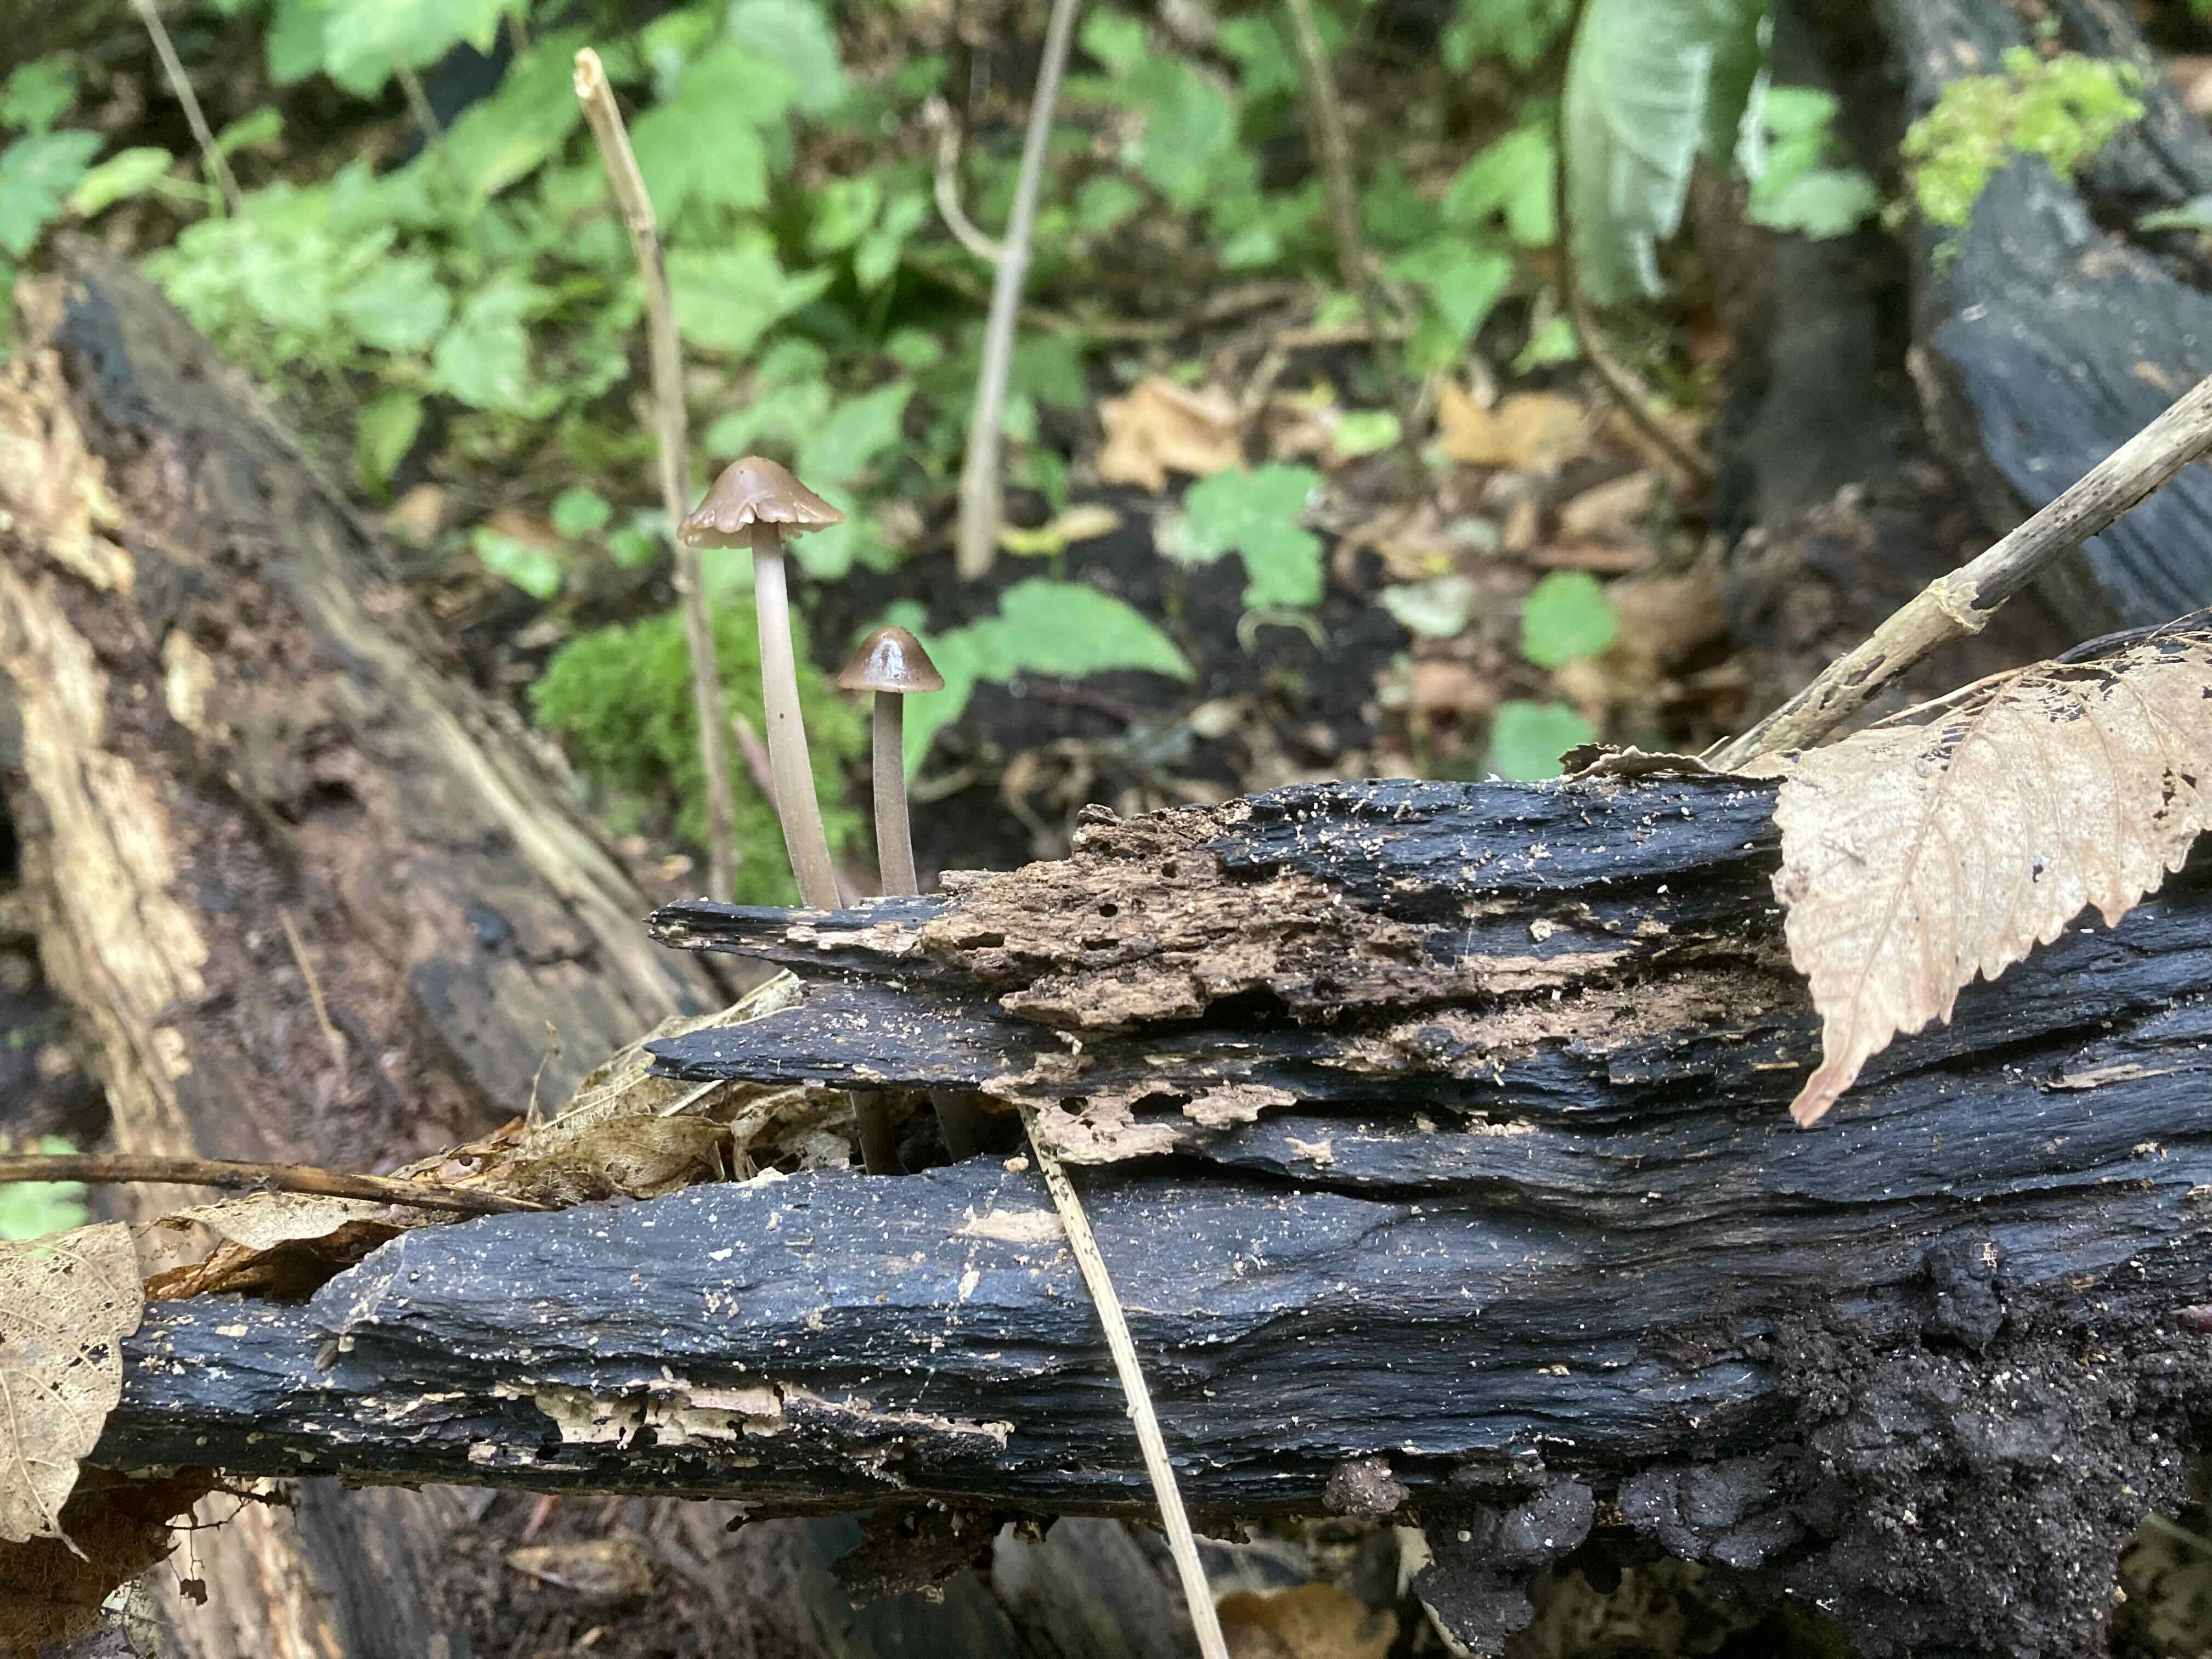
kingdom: Fungi
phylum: Basidiomycota
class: Agaricomycetes
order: Agaricales
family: Omphalotaceae
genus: Mycetinis
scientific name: Mycetinis alliaceus
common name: stor løghat
